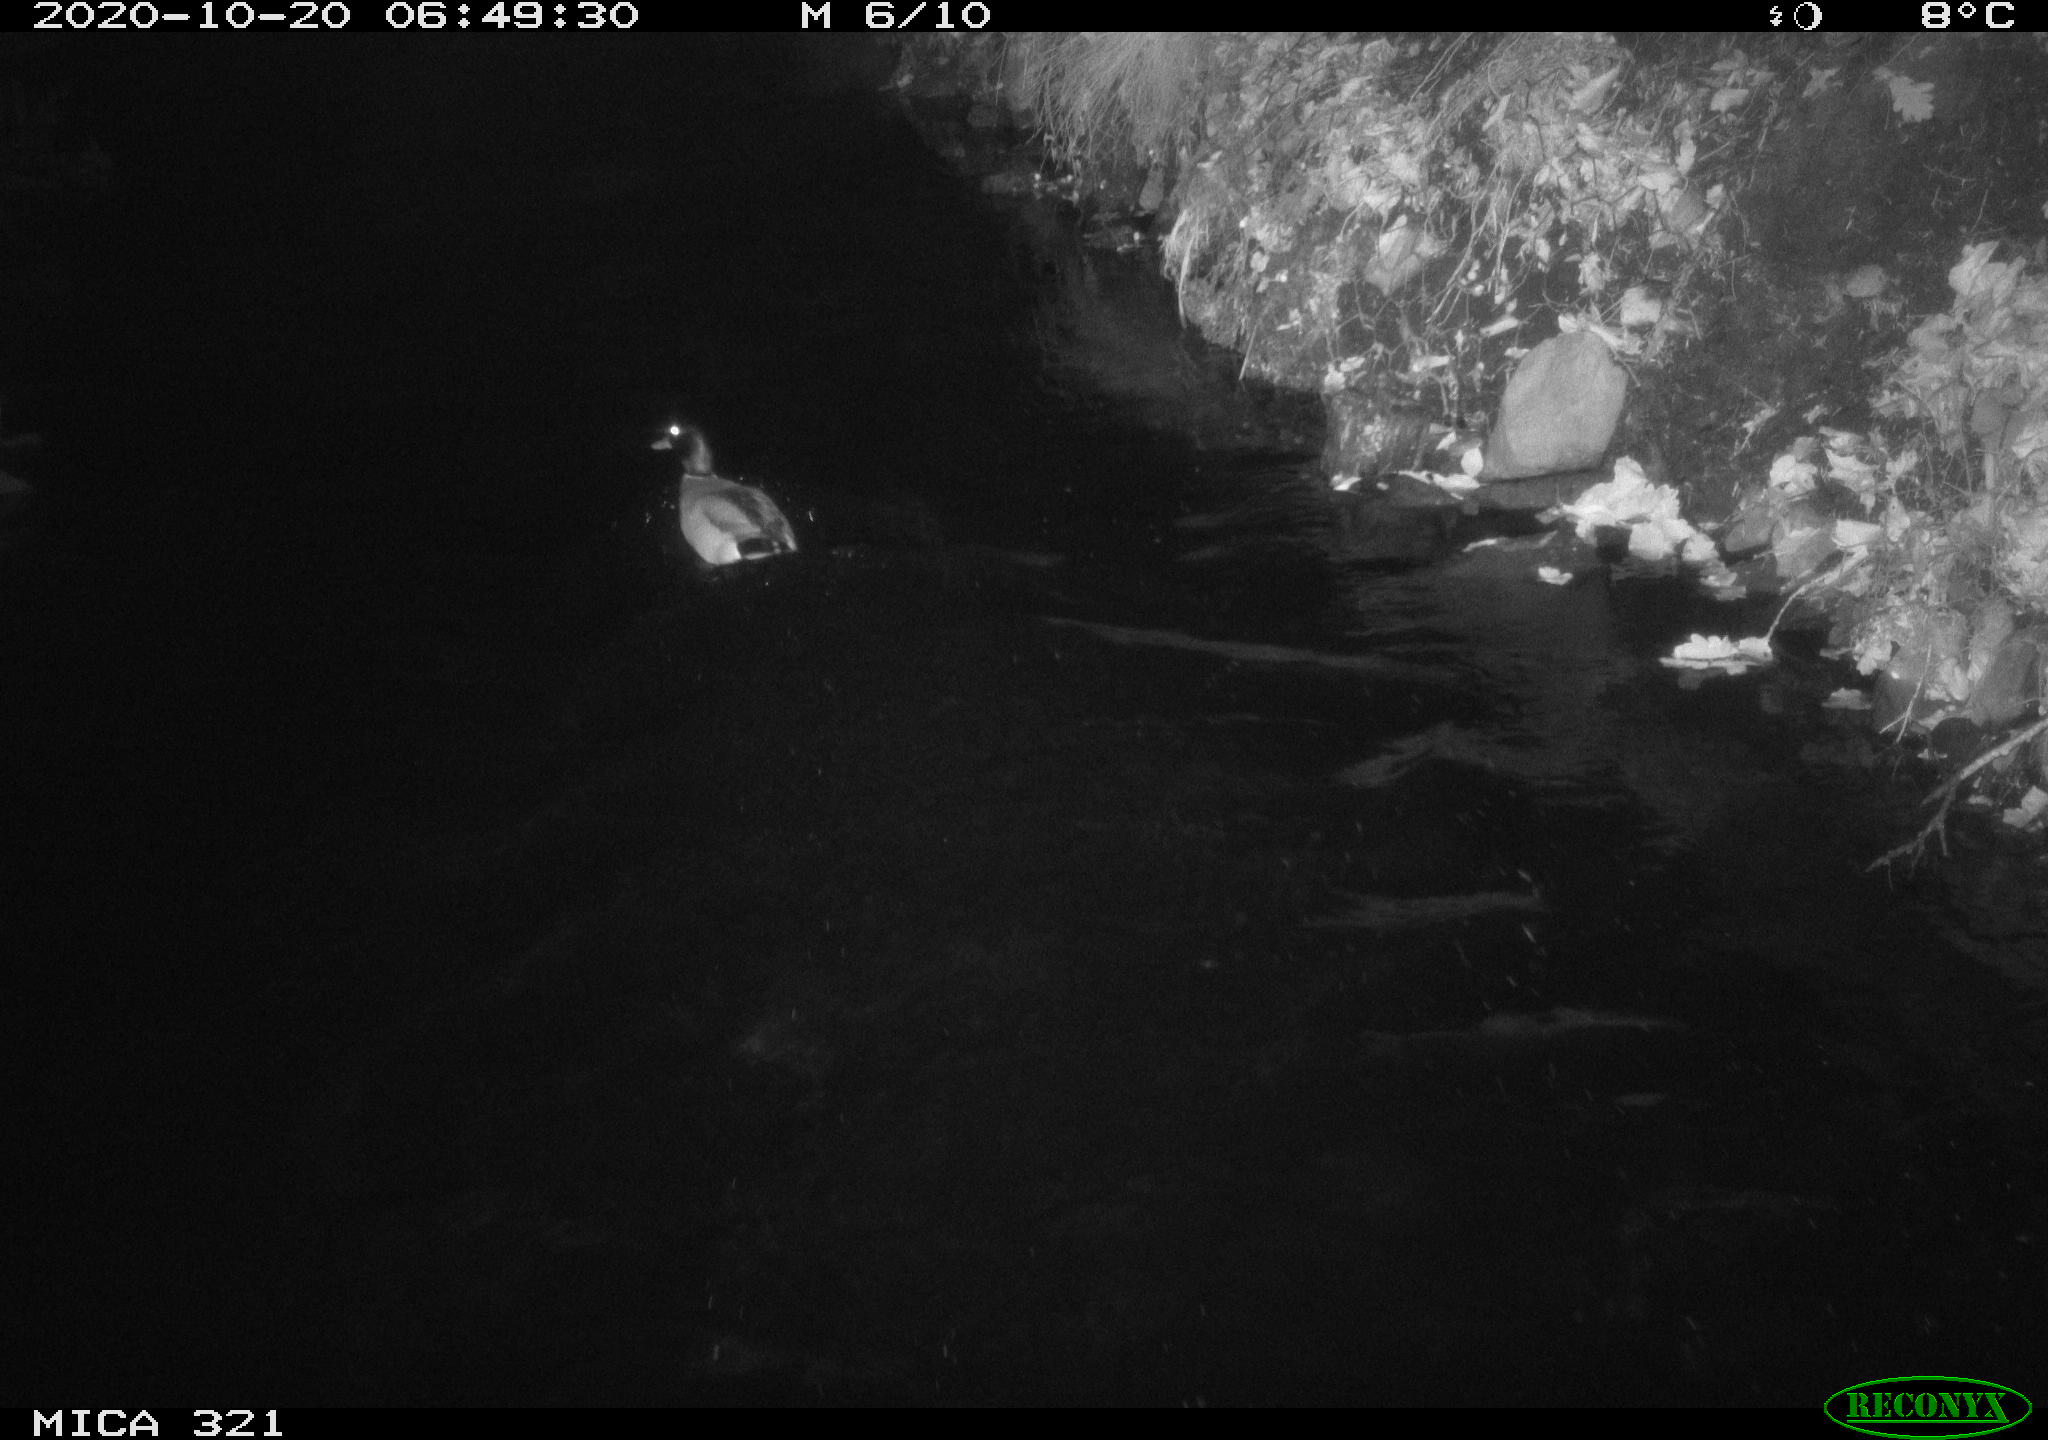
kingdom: Animalia
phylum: Chordata
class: Aves
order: Anseriformes
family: Anatidae
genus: Anas
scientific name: Anas platyrhynchos
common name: Mallard
